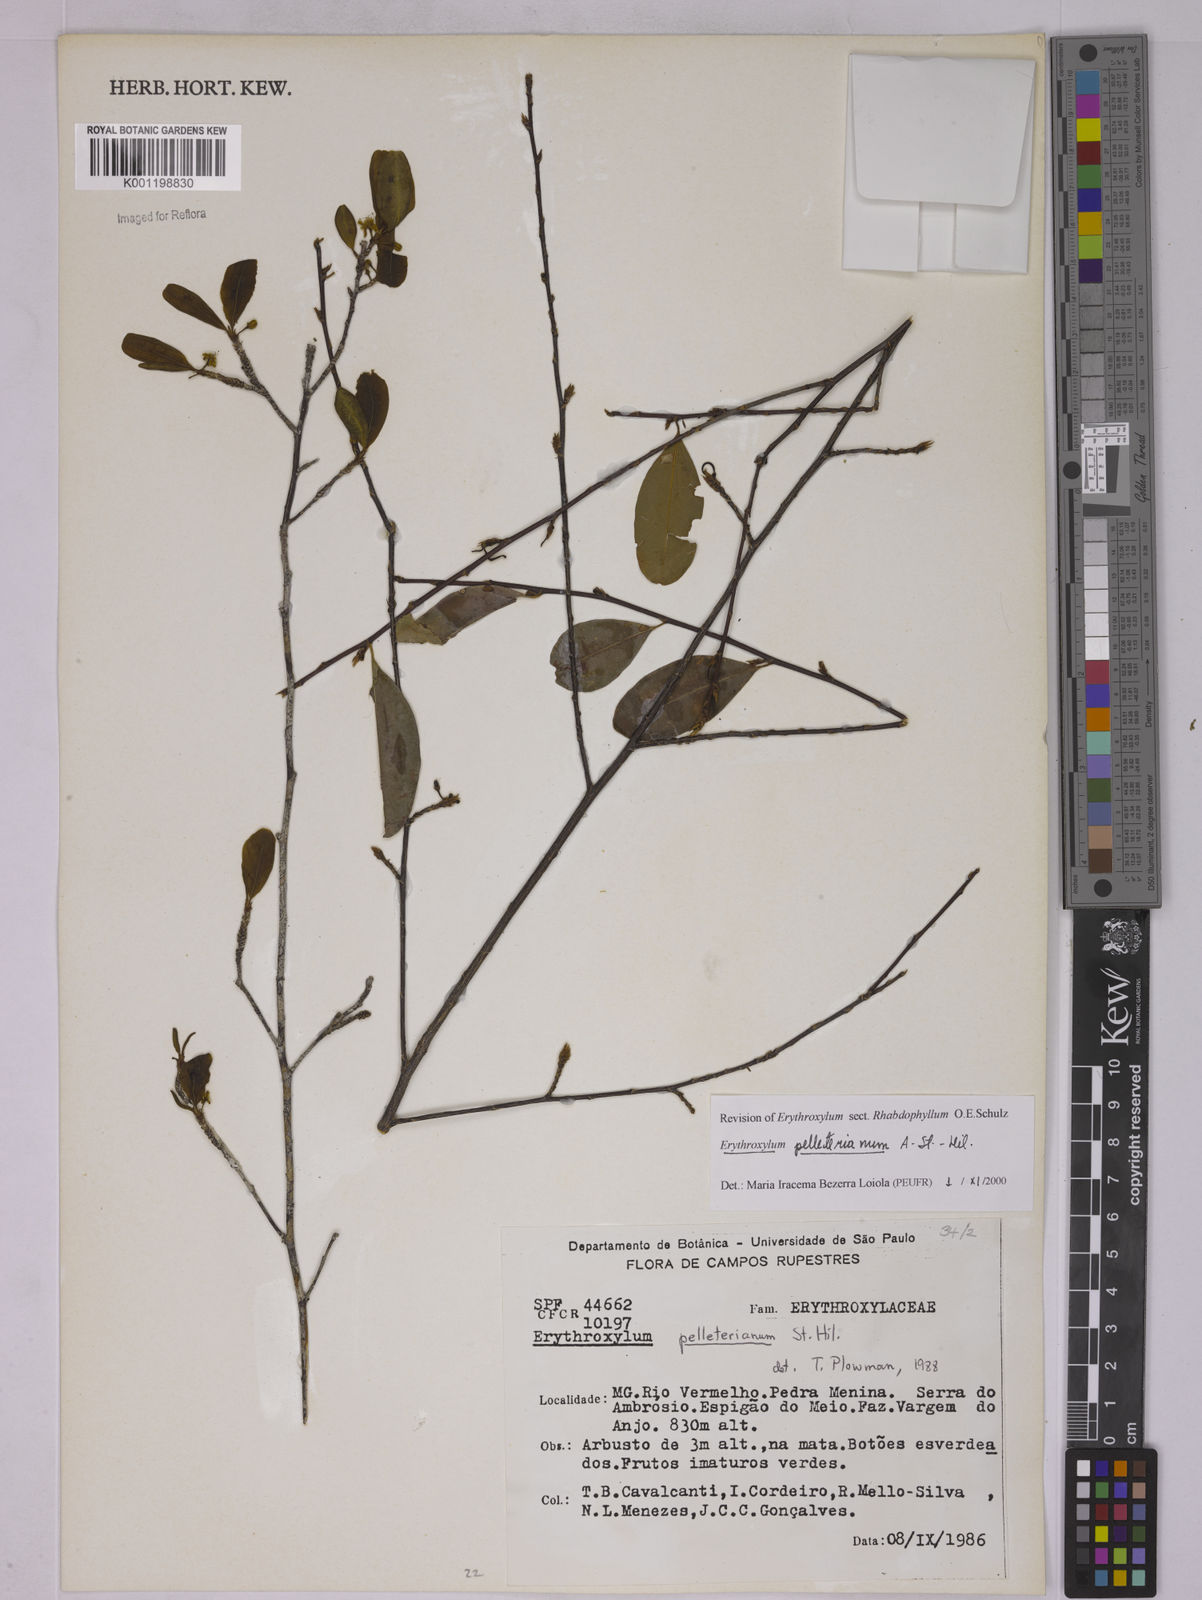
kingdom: Plantae
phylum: Tracheophyta
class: Magnoliopsida
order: Malpighiales
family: Erythroxylaceae
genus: Erythroxylum
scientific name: Erythroxylum pelleterianum
